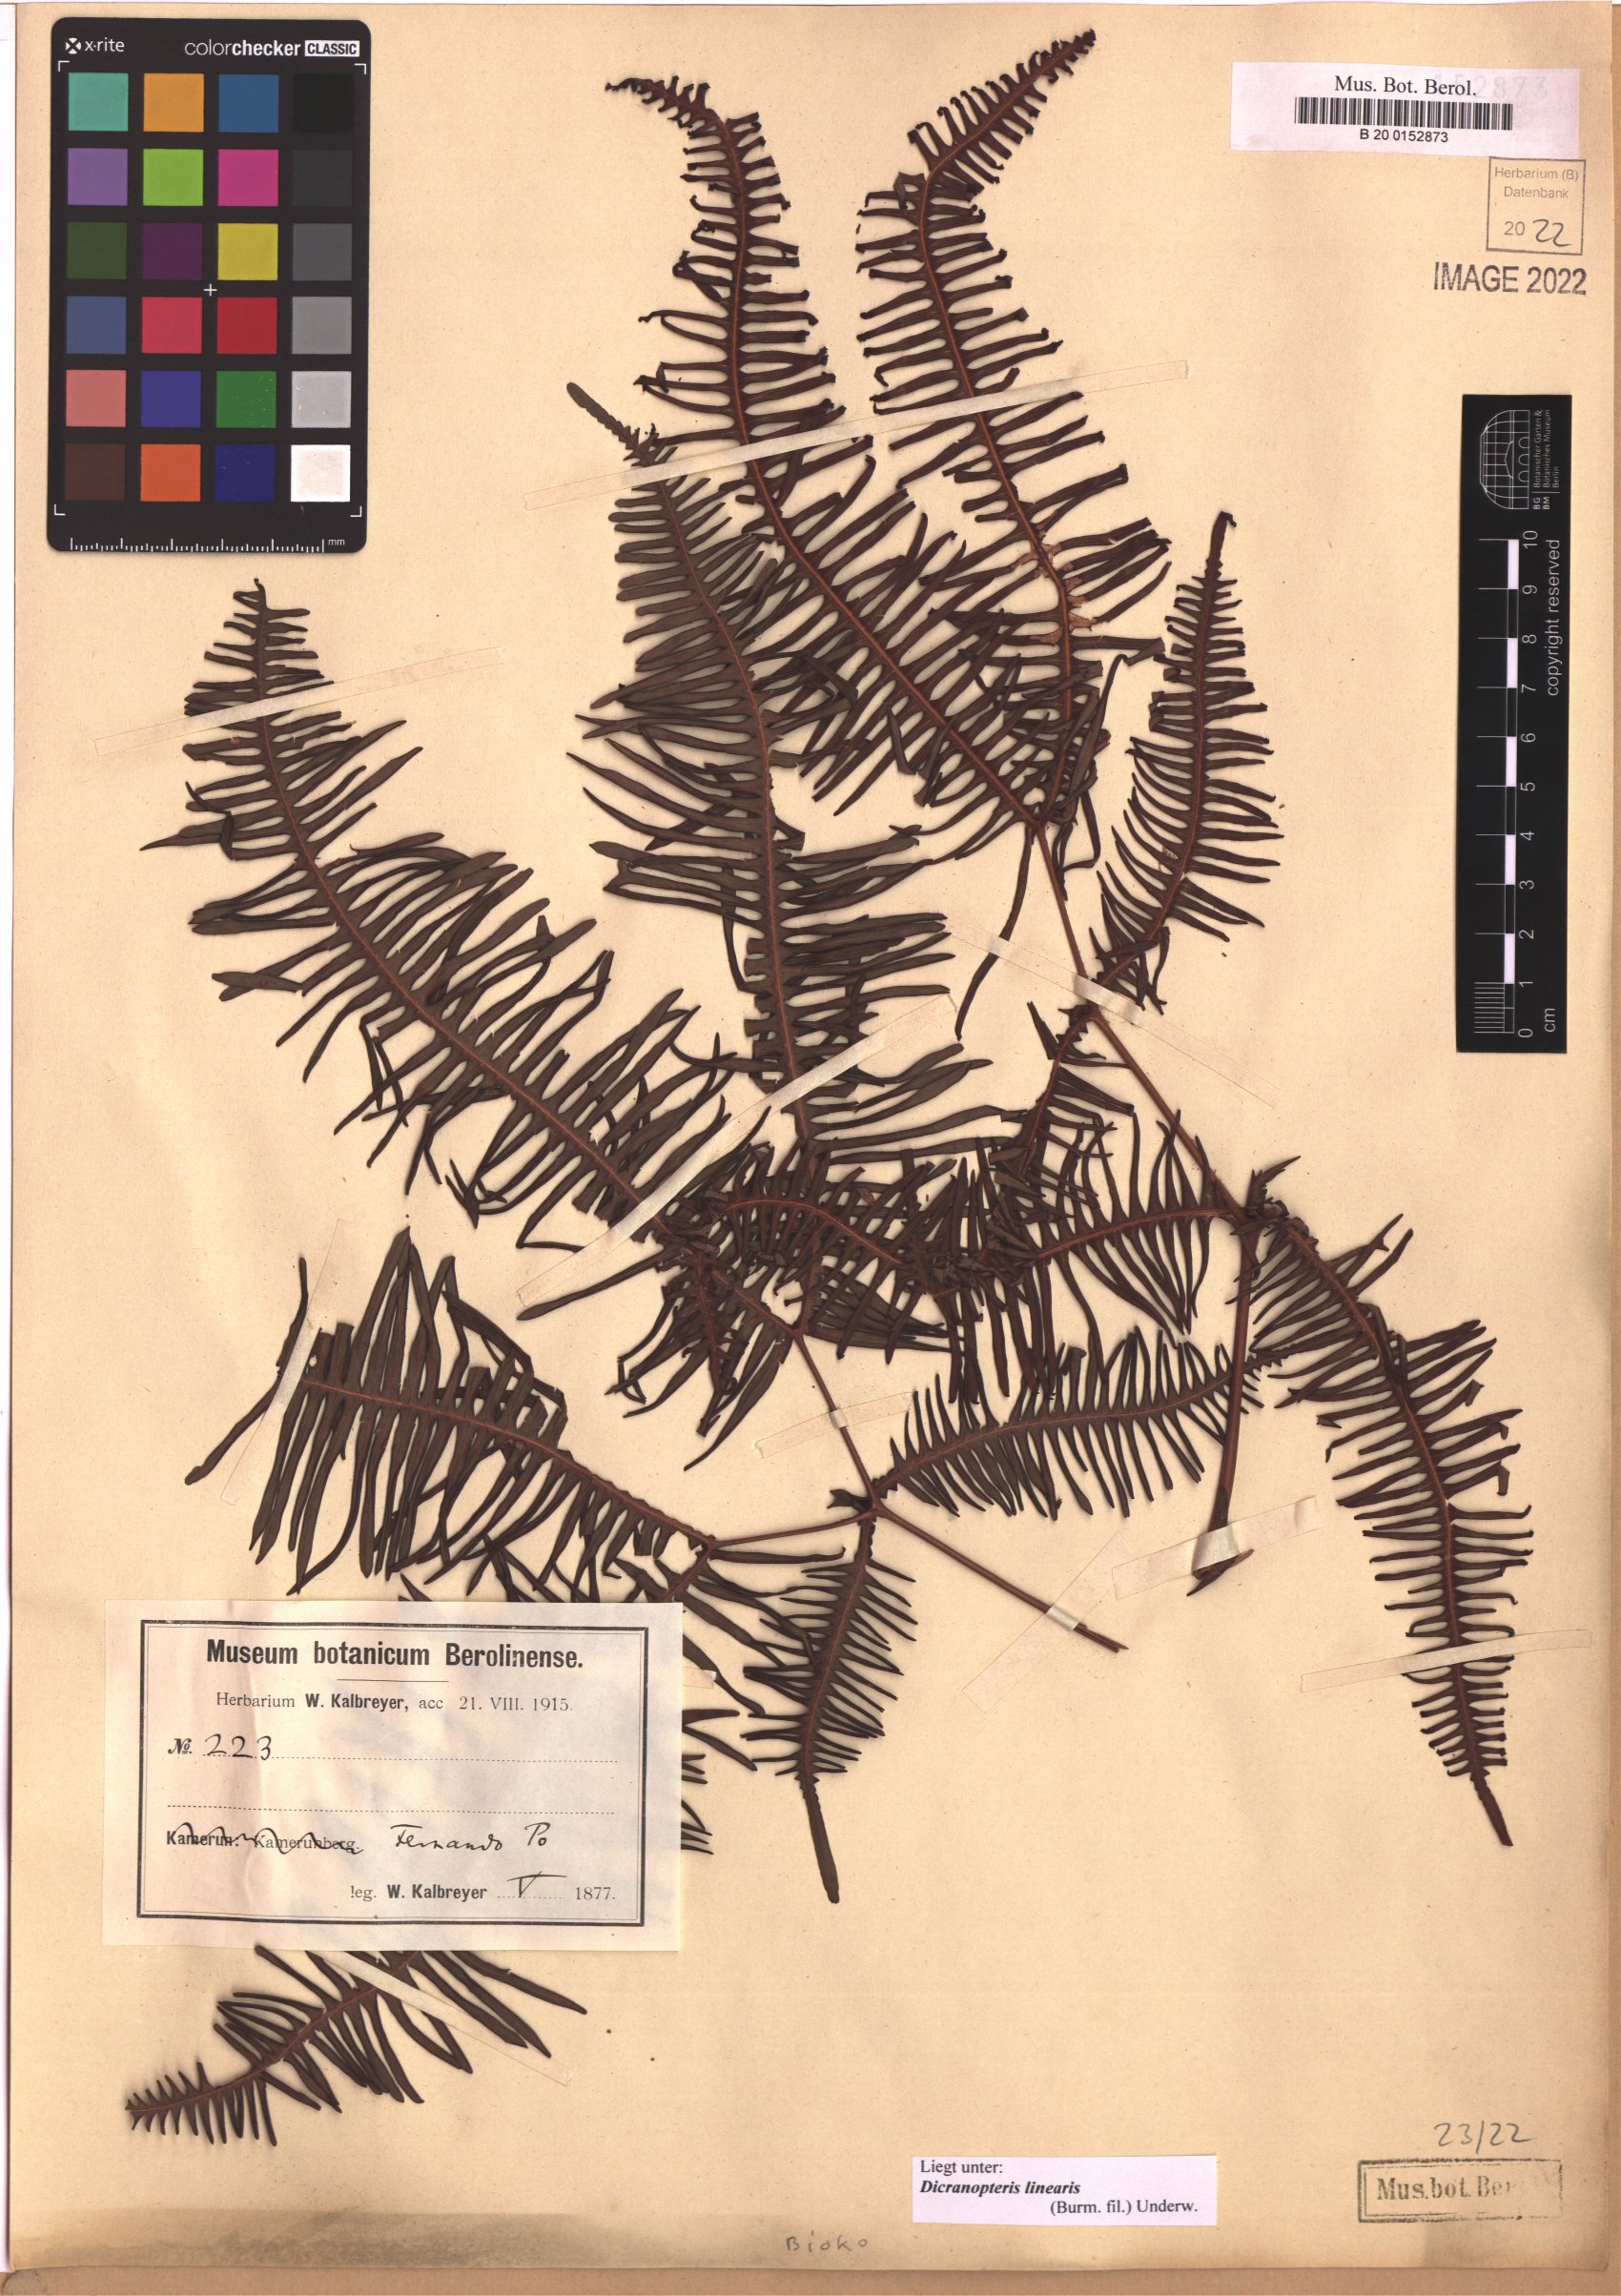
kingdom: Plantae
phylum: Tracheophyta
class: Polypodiopsida
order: Gleicheniales
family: Gleicheniaceae
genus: Dicranopteris
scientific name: Dicranopteris linearis
